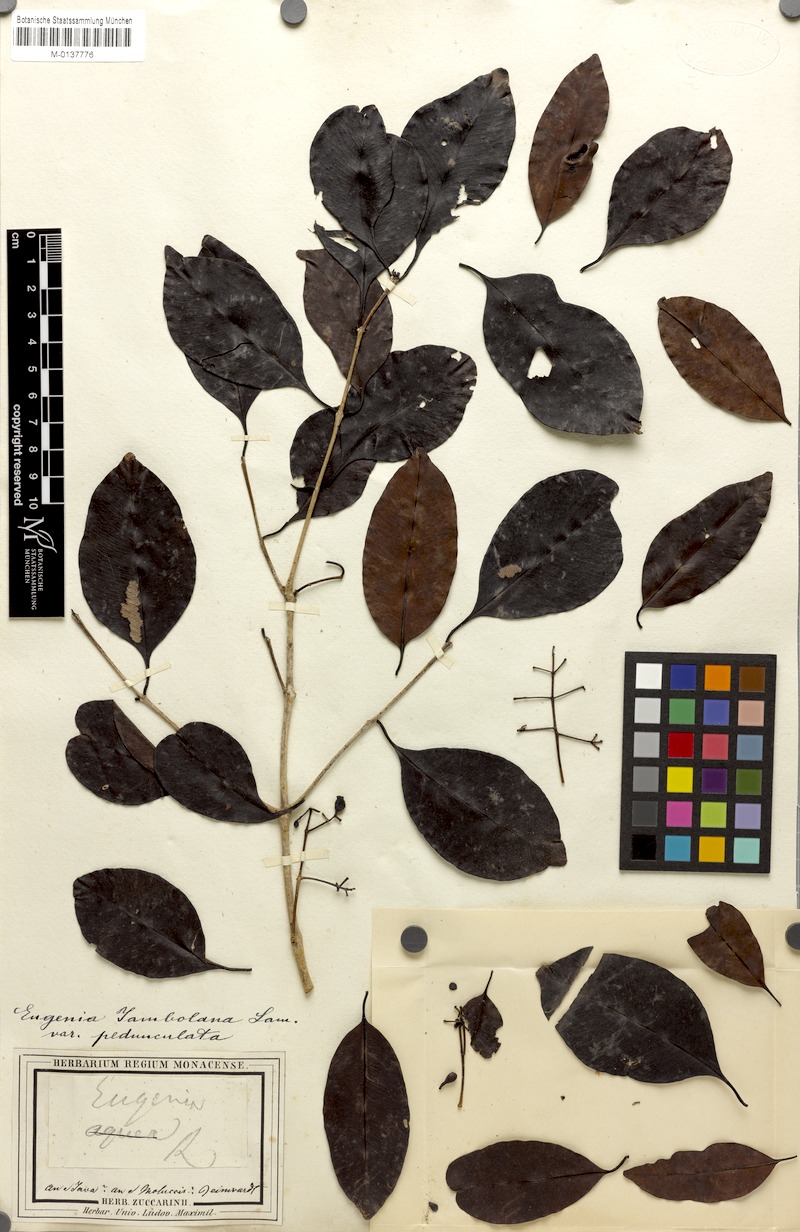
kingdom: Plantae
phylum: Tracheophyta
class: Magnoliopsida
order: Myrtales
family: Myrtaceae
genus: Syzygium
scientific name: Syzygium cumini
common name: Java plum
